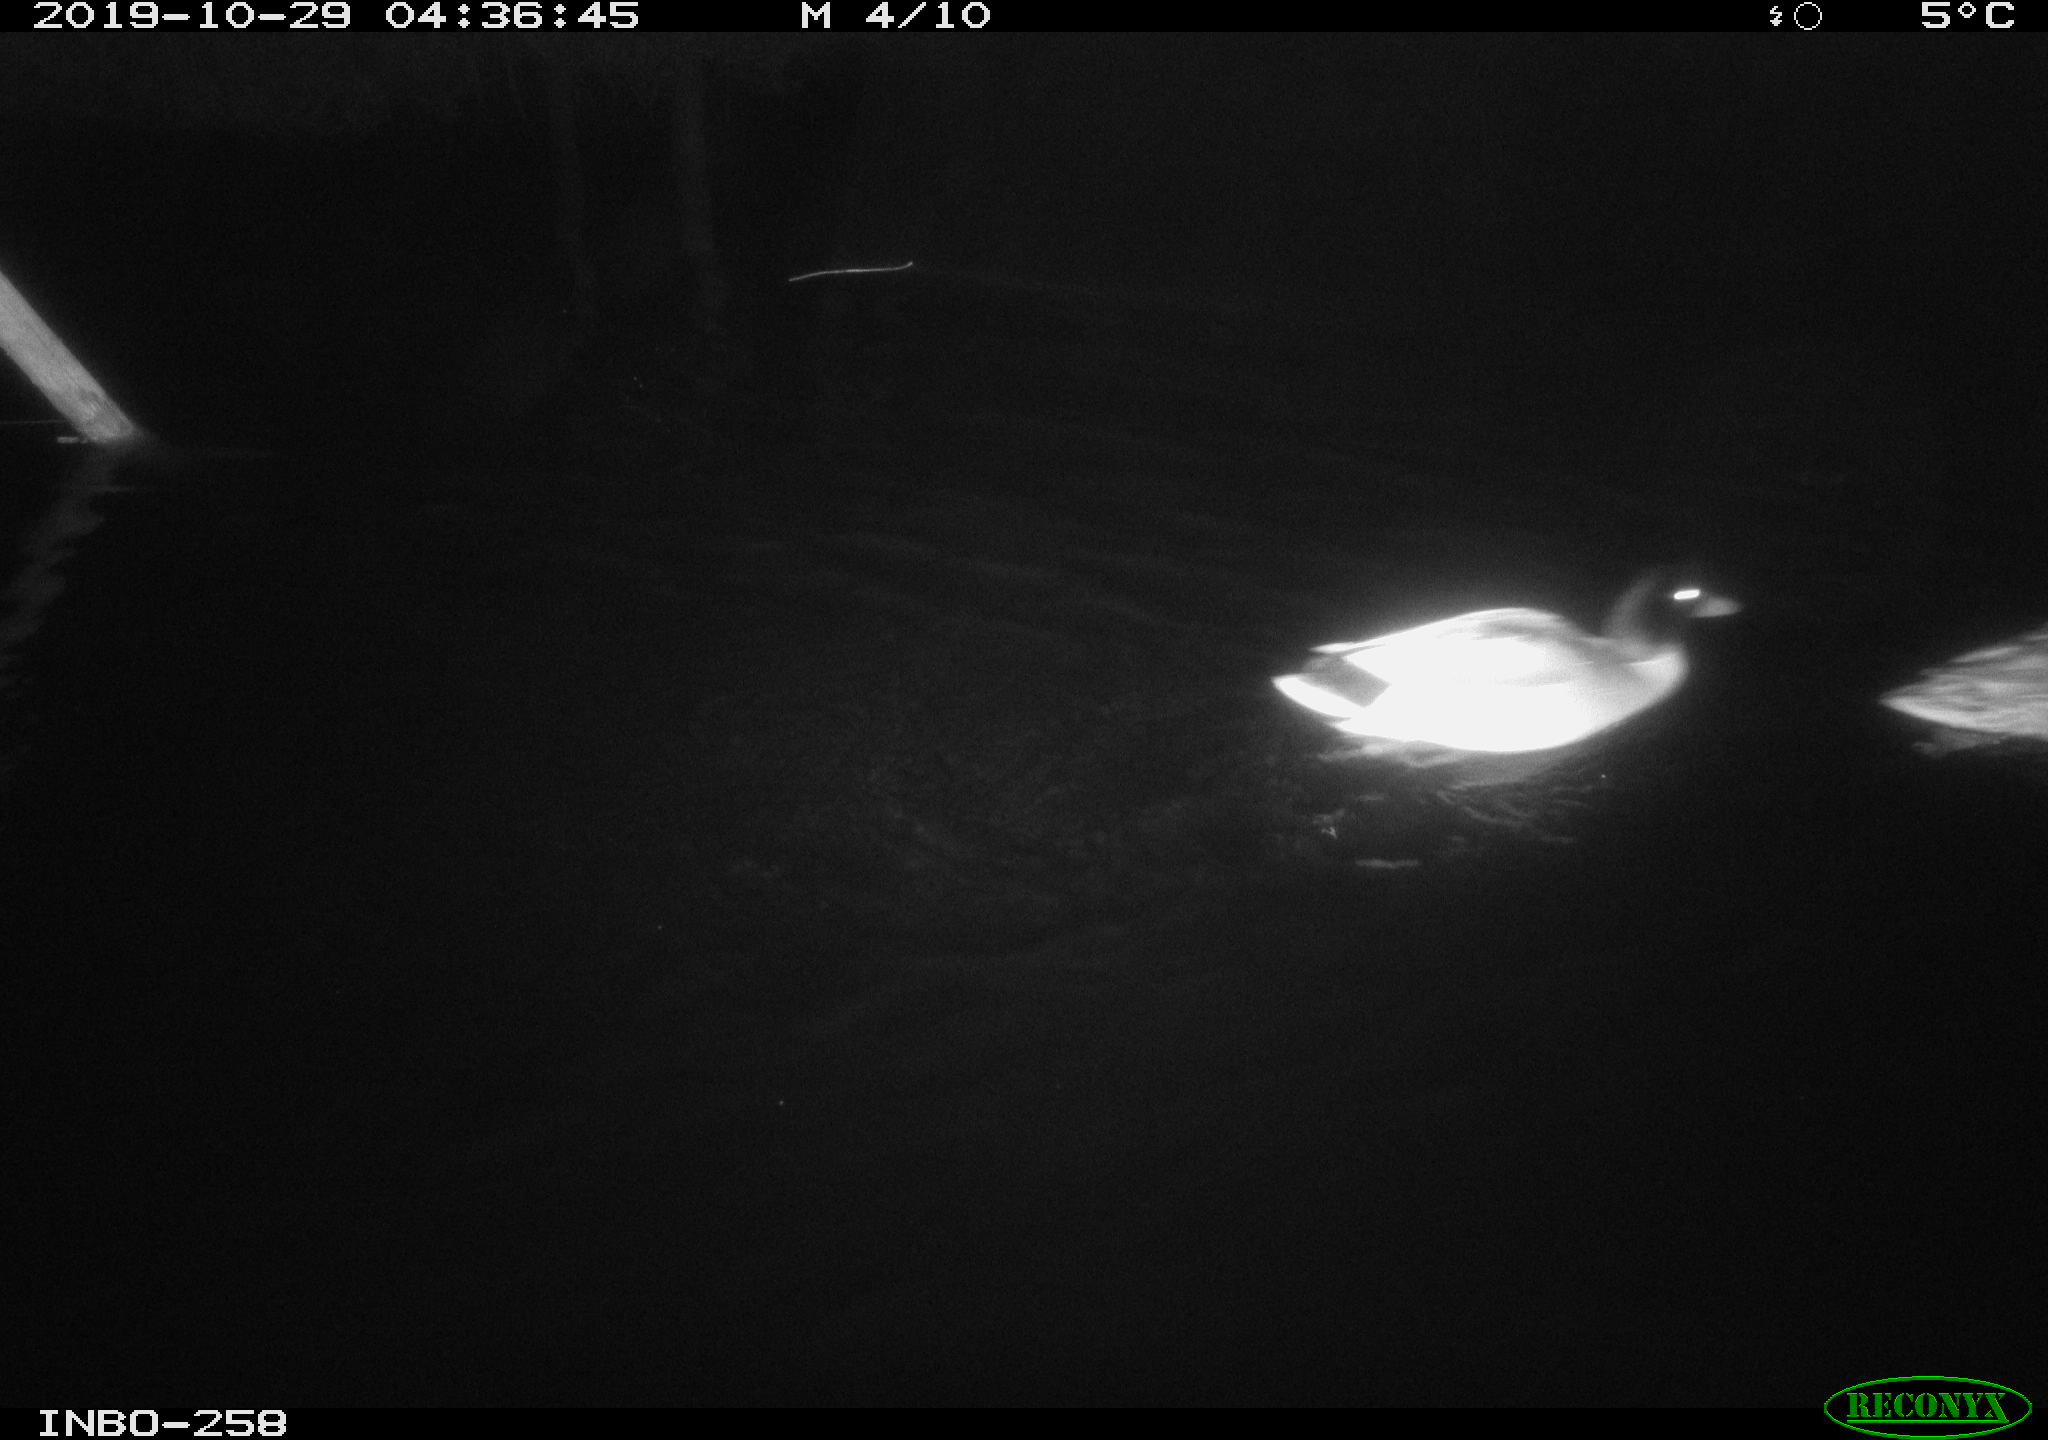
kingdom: Animalia
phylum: Chordata
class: Aves
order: Anseriformes
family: Anatidae
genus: Anas
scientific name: Anas platyrhynchos
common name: Mallard
